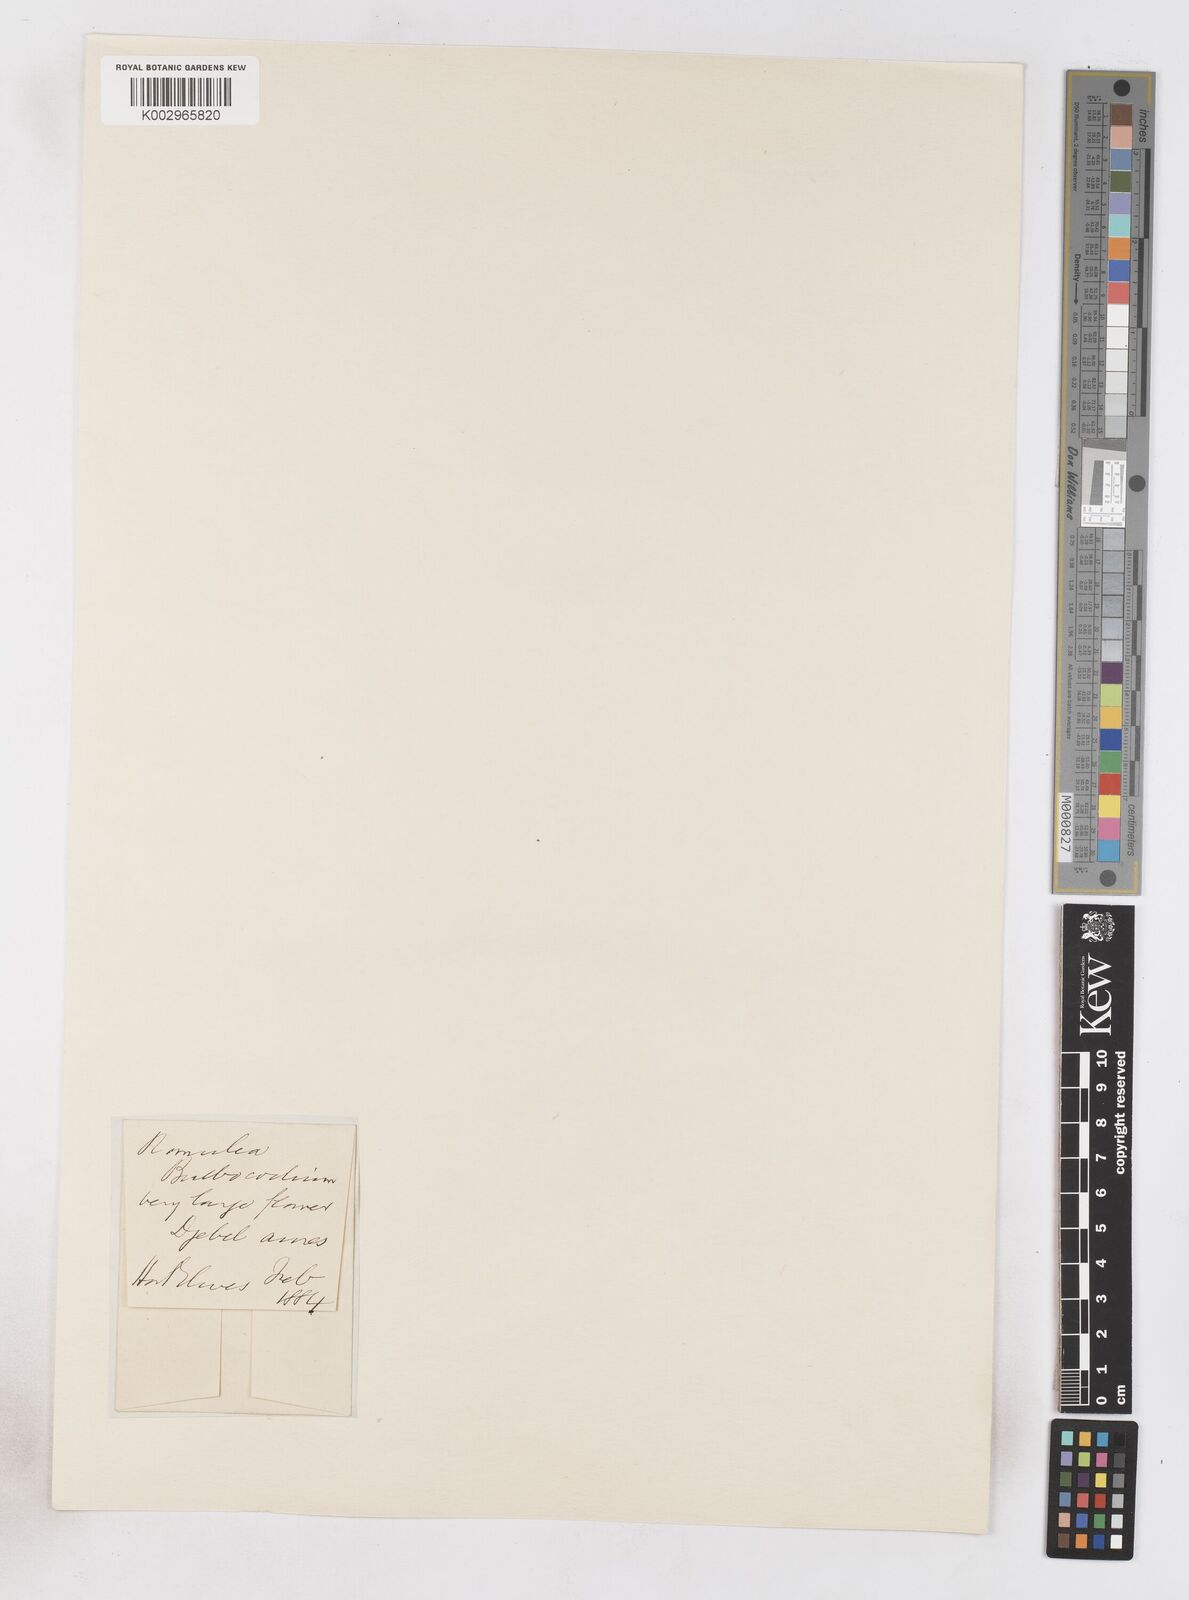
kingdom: Plantae
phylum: Tracheophyta
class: Liliopsida
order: Asparagales
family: Iridaceae
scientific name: Iridaceae
